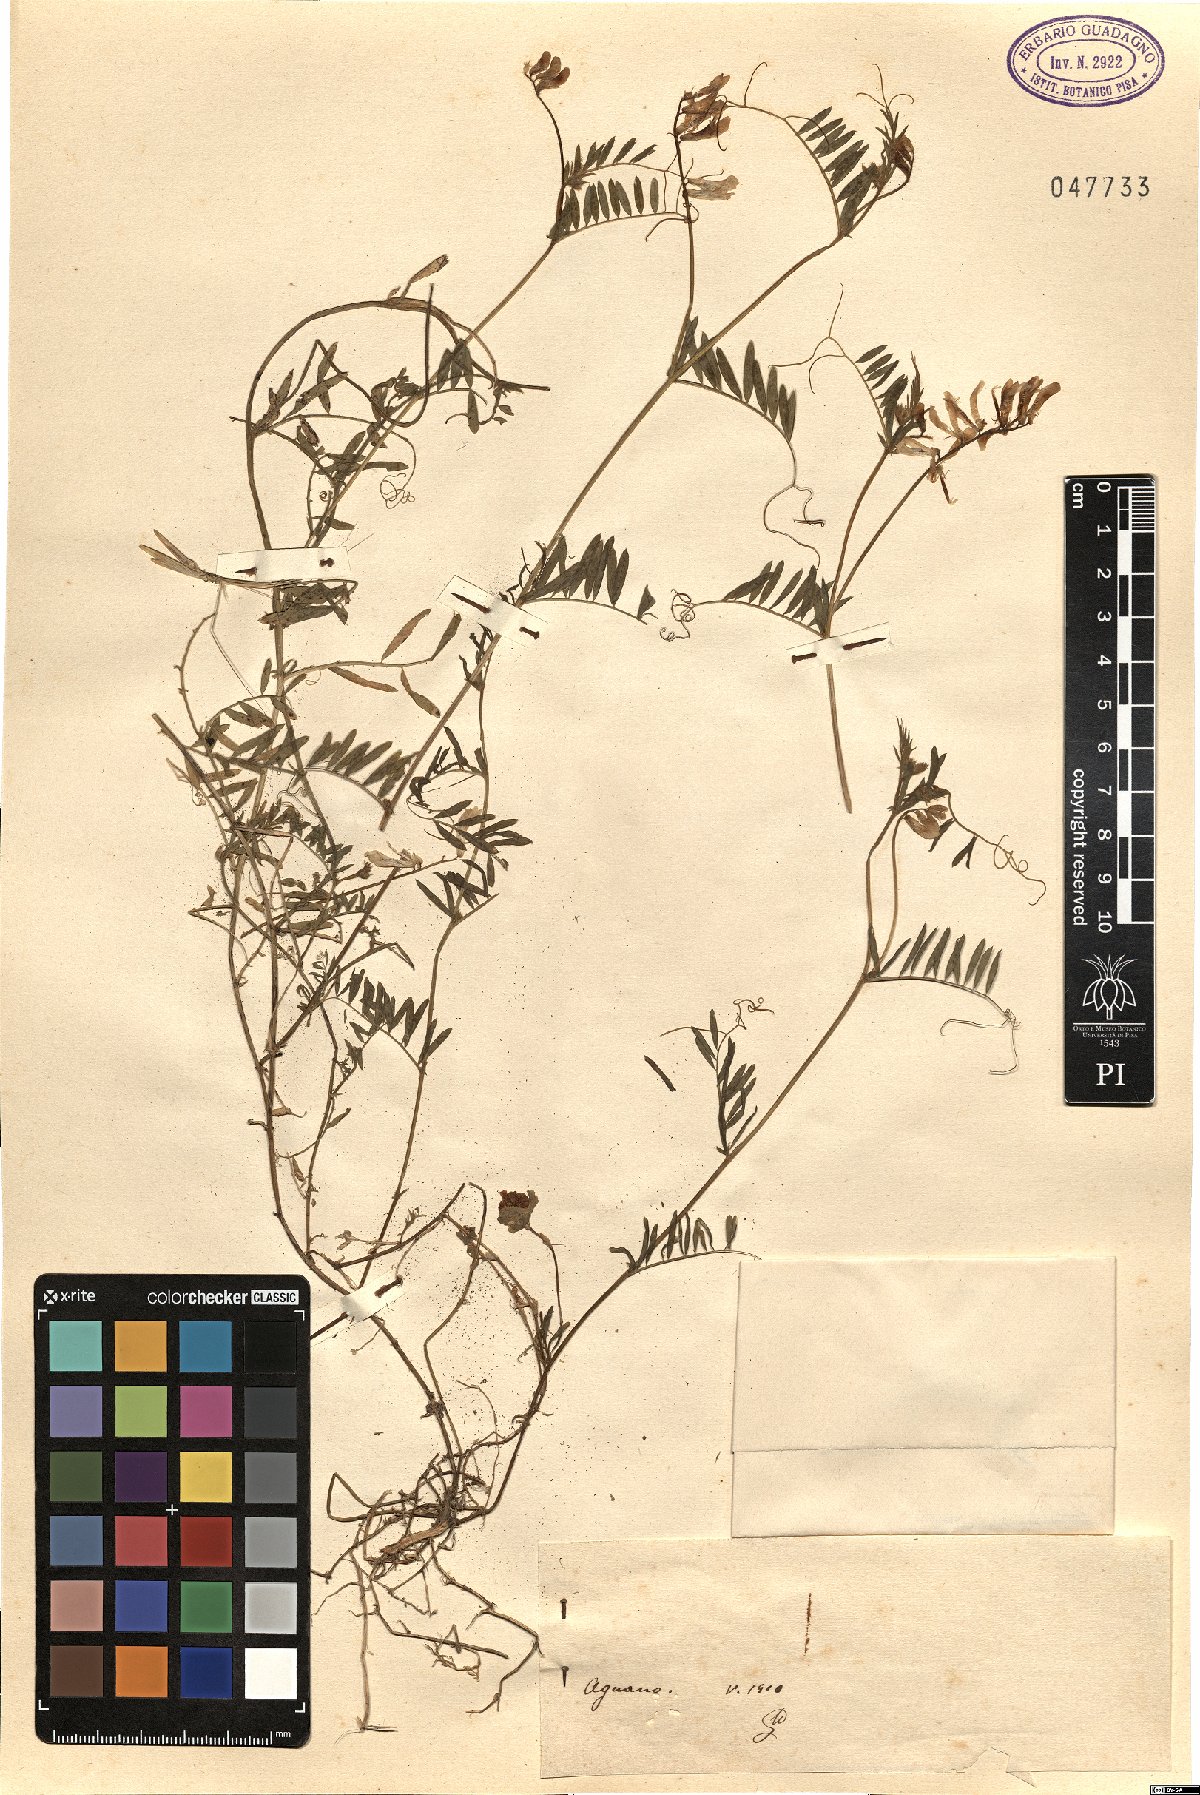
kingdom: Plantae
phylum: Tracheophyta
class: Magnoliopsida
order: Fabales
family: Fabaceae
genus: Vicia
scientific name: Vicia
